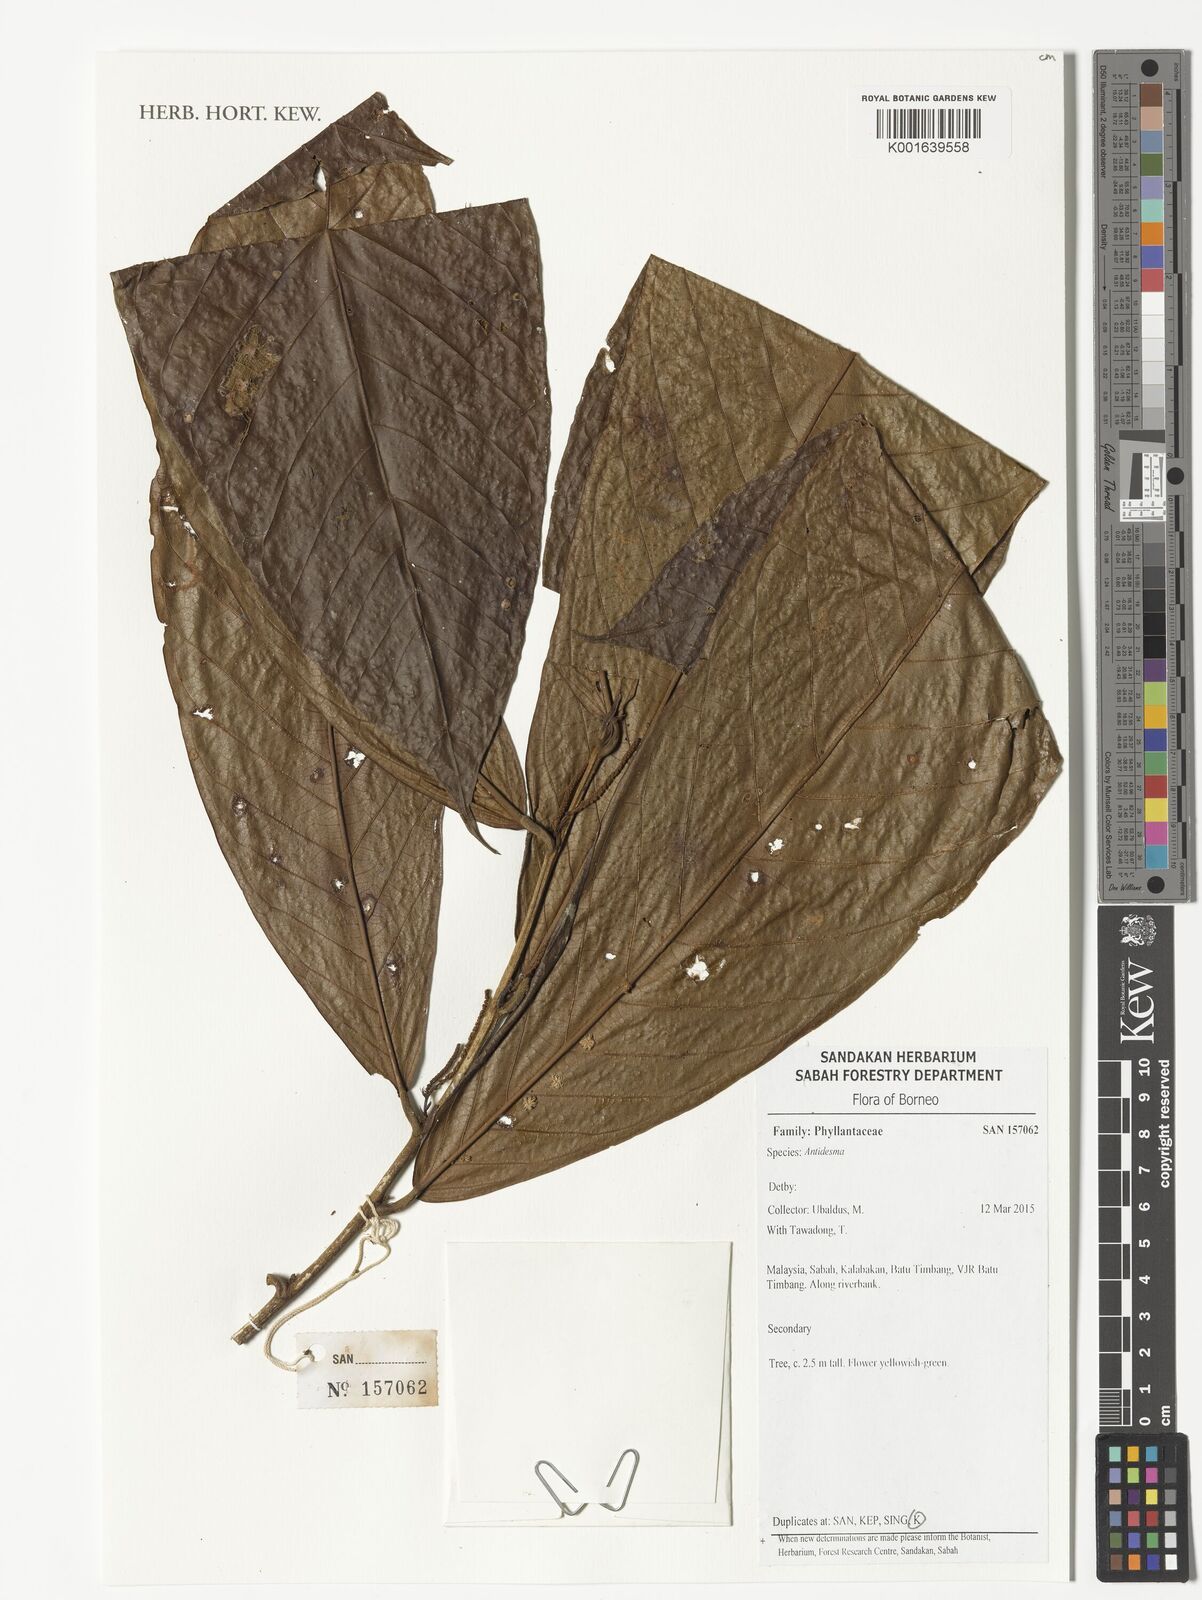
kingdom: Plantae
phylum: Tracheophyta
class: Magnoliopsida
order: Malpighiales
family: Phyllanthaceae
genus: Antidesma
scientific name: Antidesma
